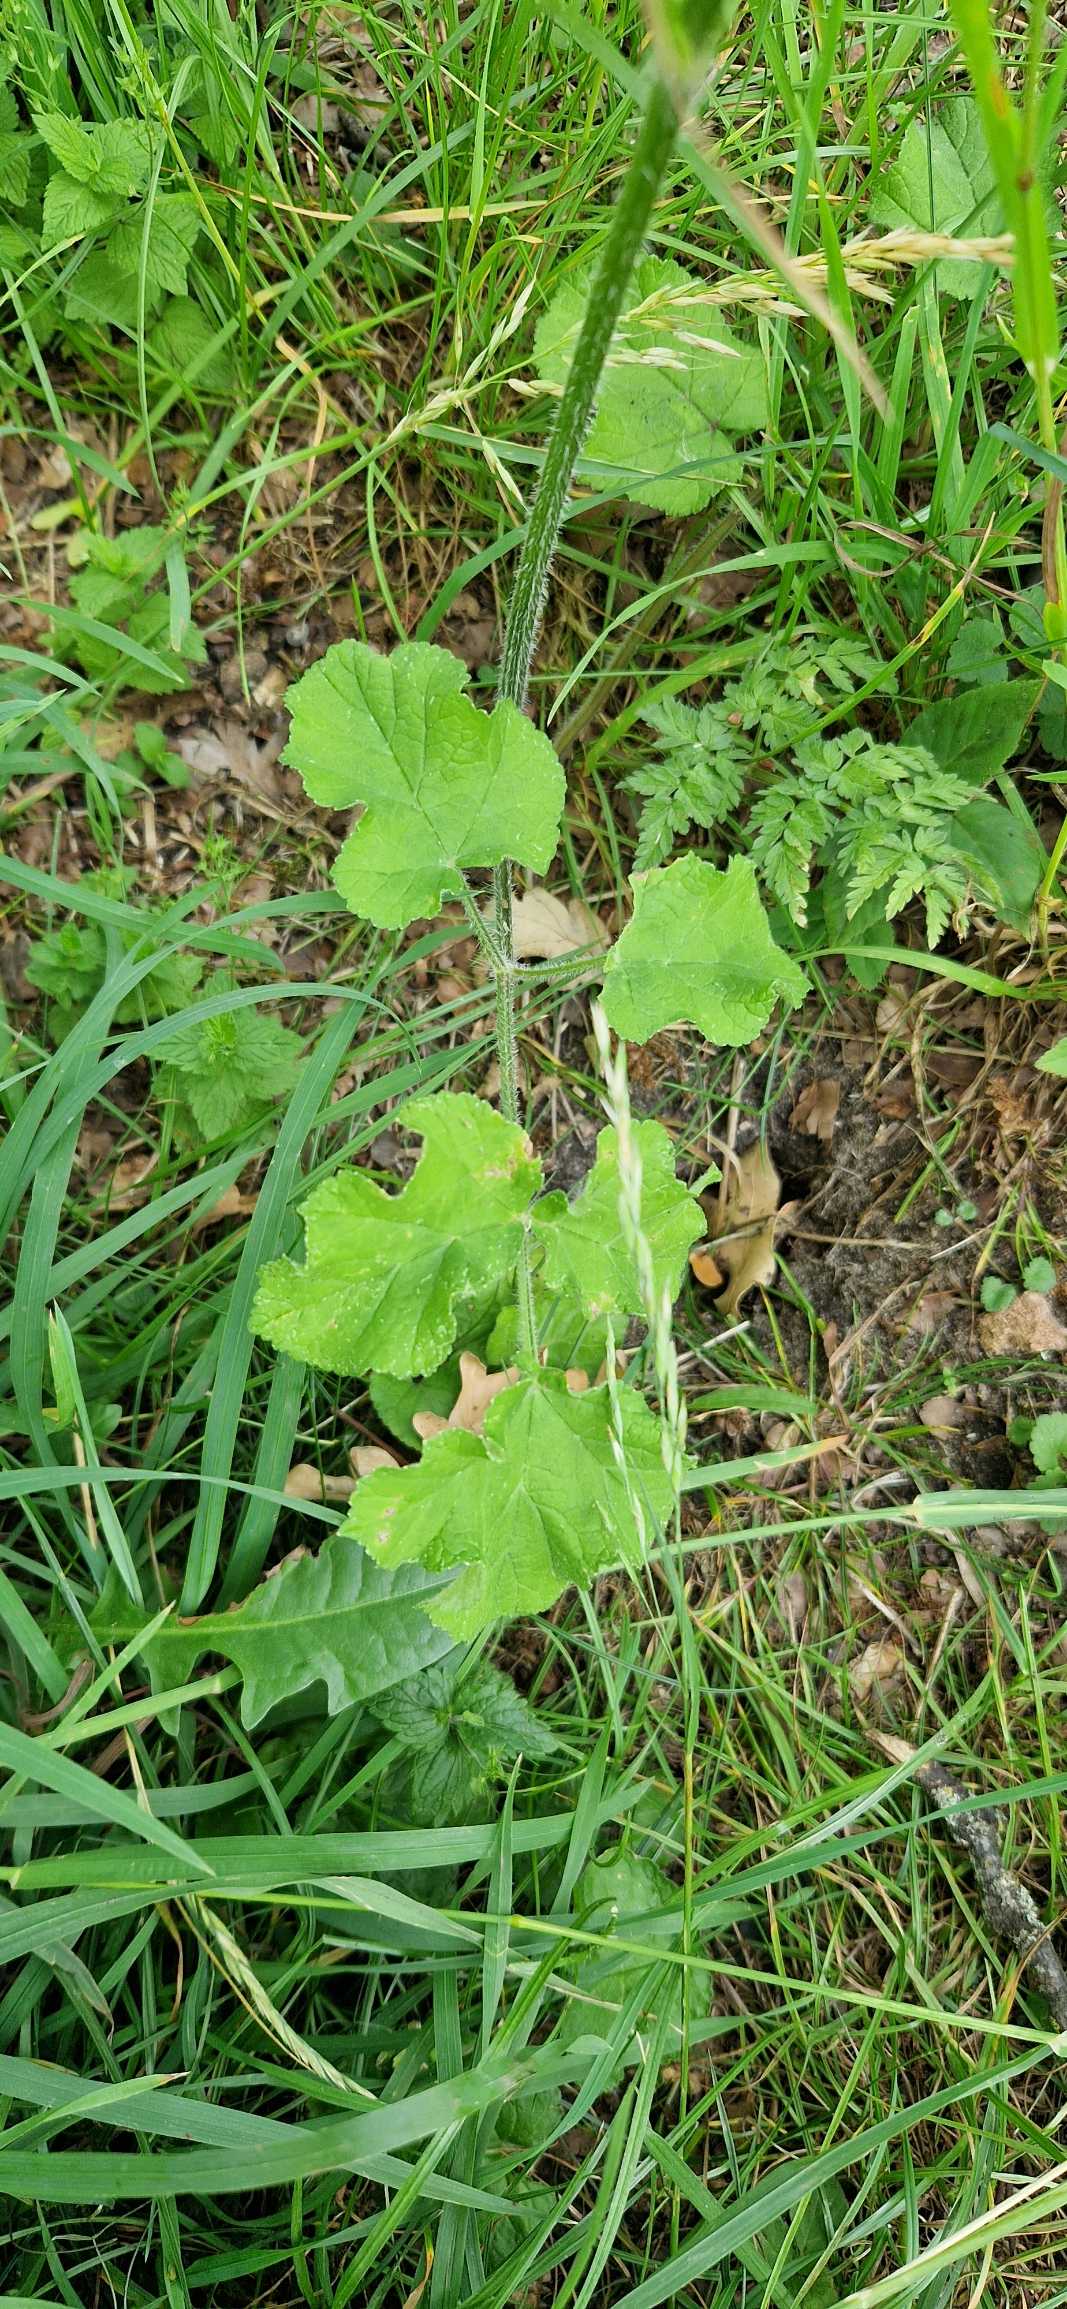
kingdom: Plantae
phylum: Tracheophyta
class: Magnoliopsida
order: Apiales
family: Apiaceae
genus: Heracleum
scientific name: Heracleum sphondylium
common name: Almindelig bjørneklo
